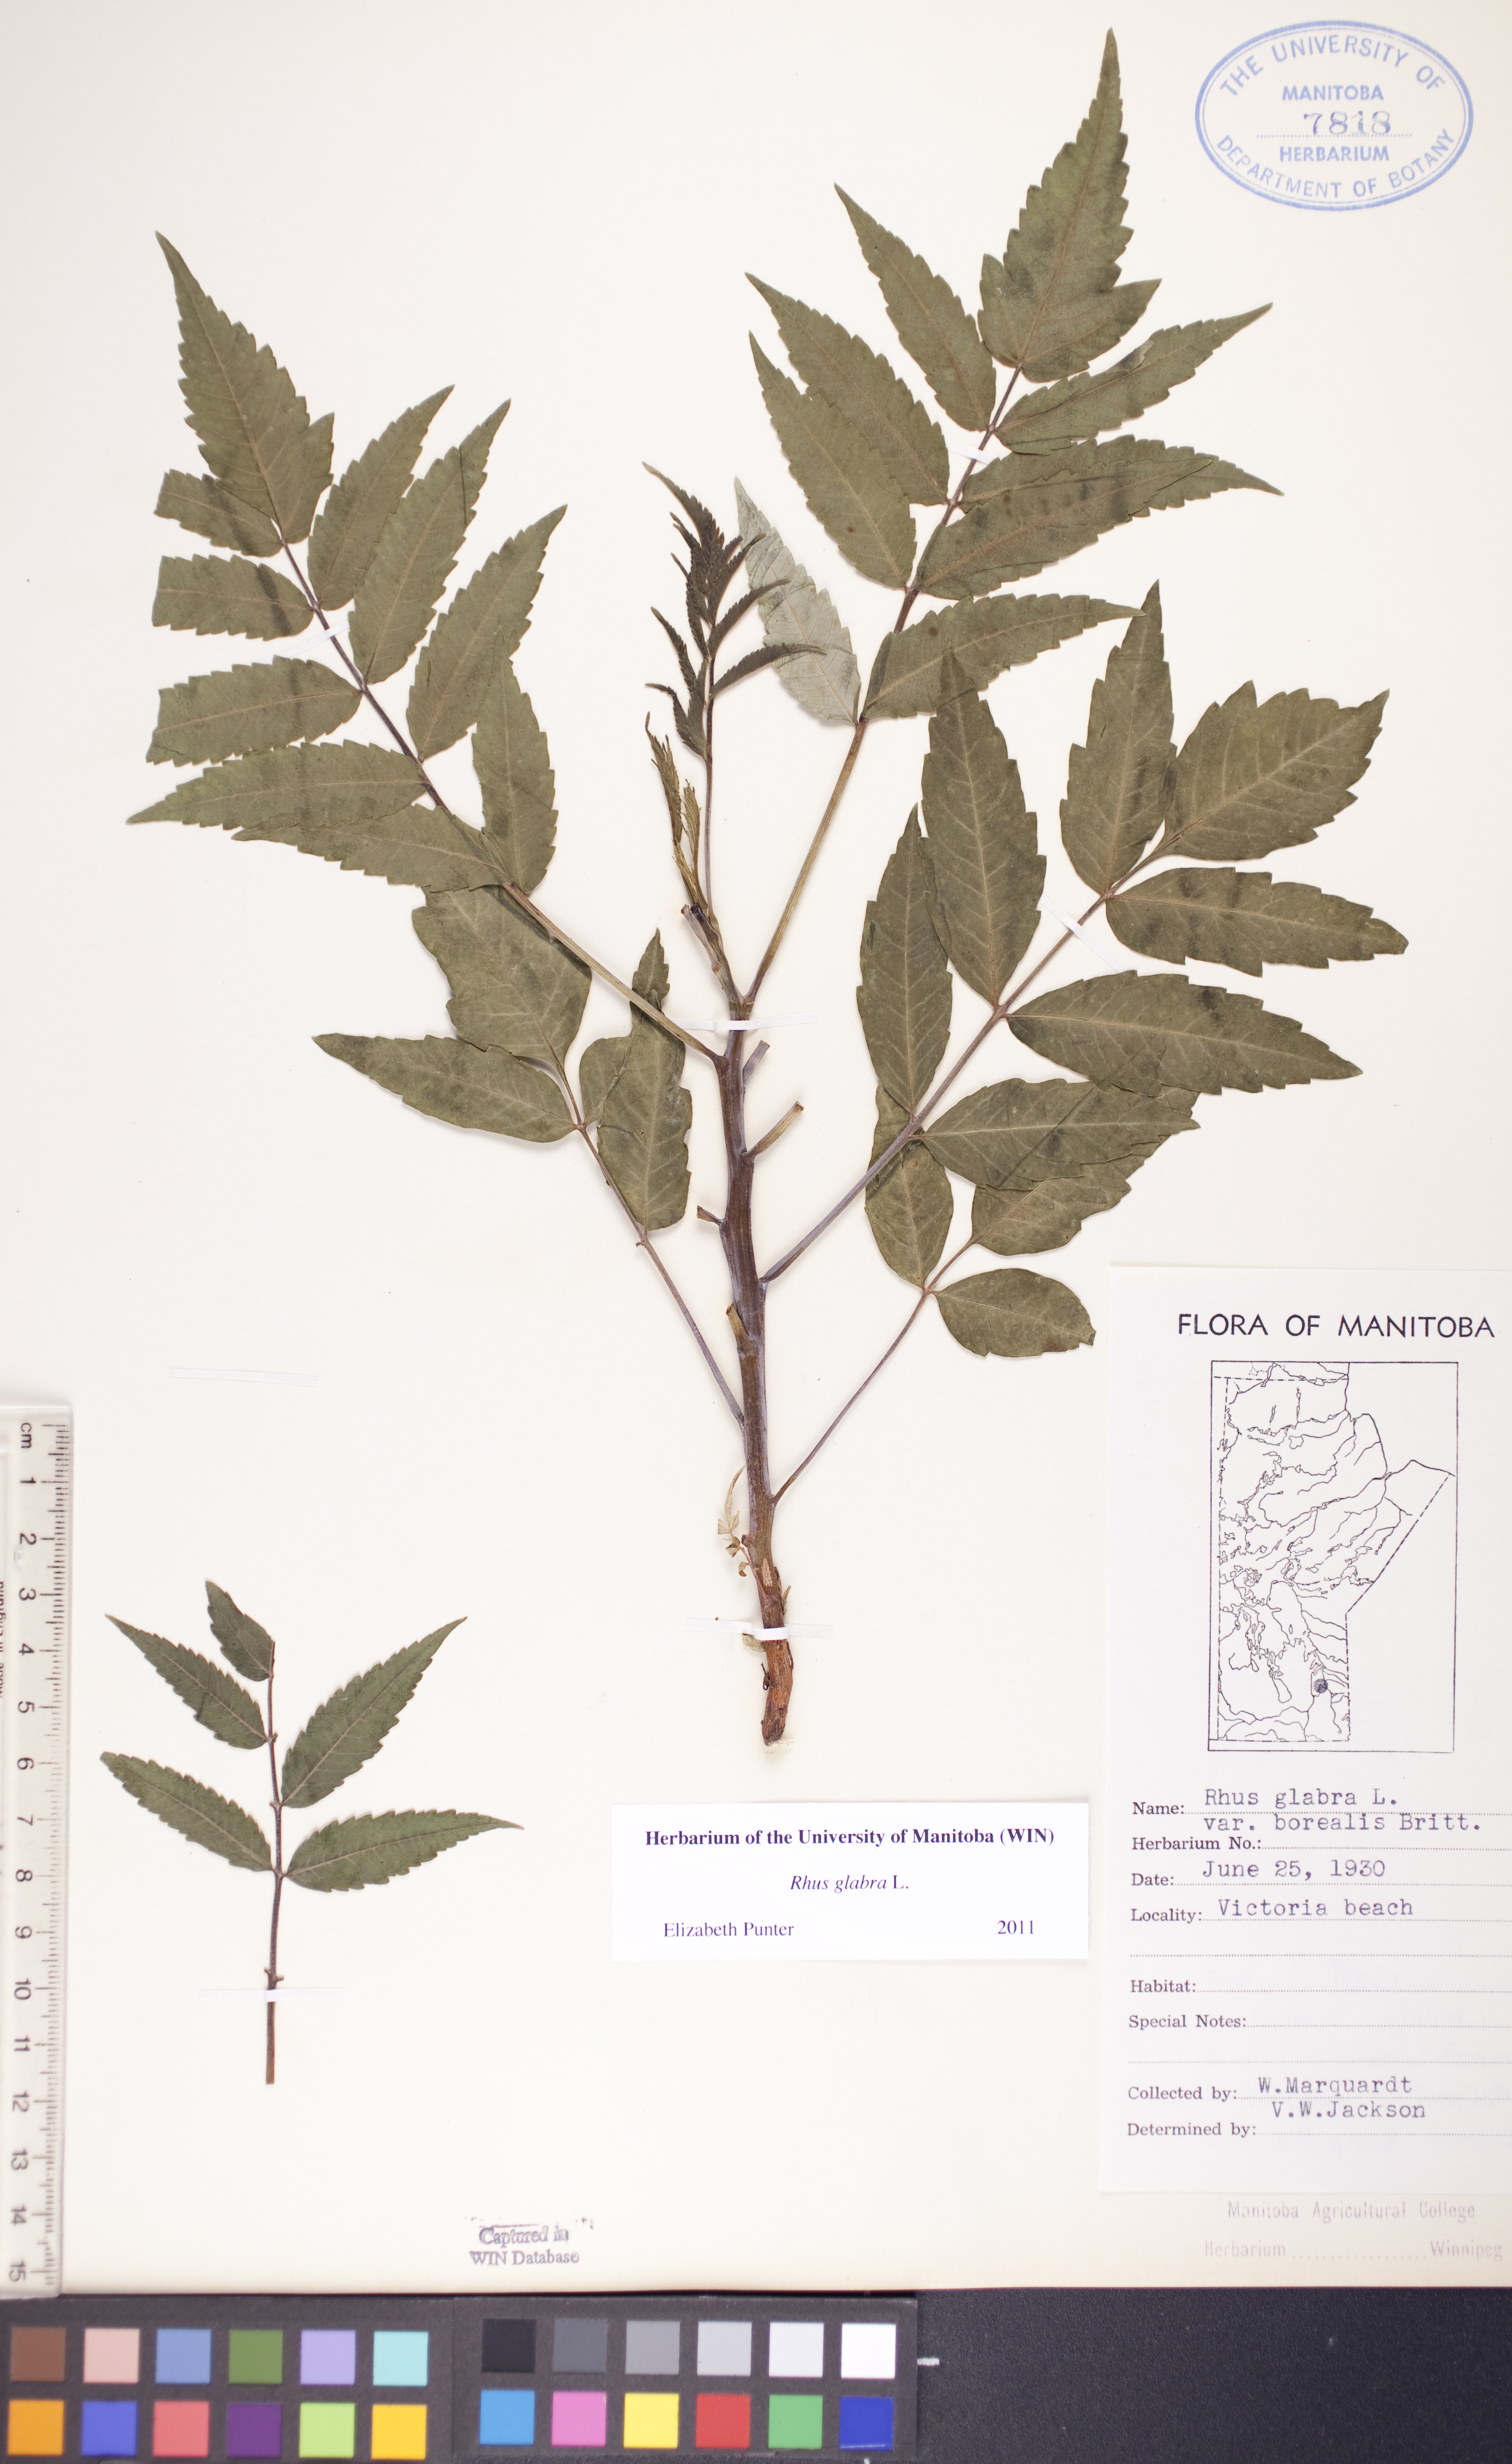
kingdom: Plantae
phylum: Tracheophyta
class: Magnoliopsida
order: Sapindales
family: Anacardiaceae
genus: Rhus
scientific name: Rhus glabra
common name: Scarlet sumac
